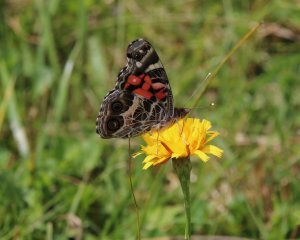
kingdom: Animalia
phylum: Arthropoda
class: Insecta
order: Lepidoptera
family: Nymphalidae
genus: Vanessa
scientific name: Vanessa virginiensis
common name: American Lady
